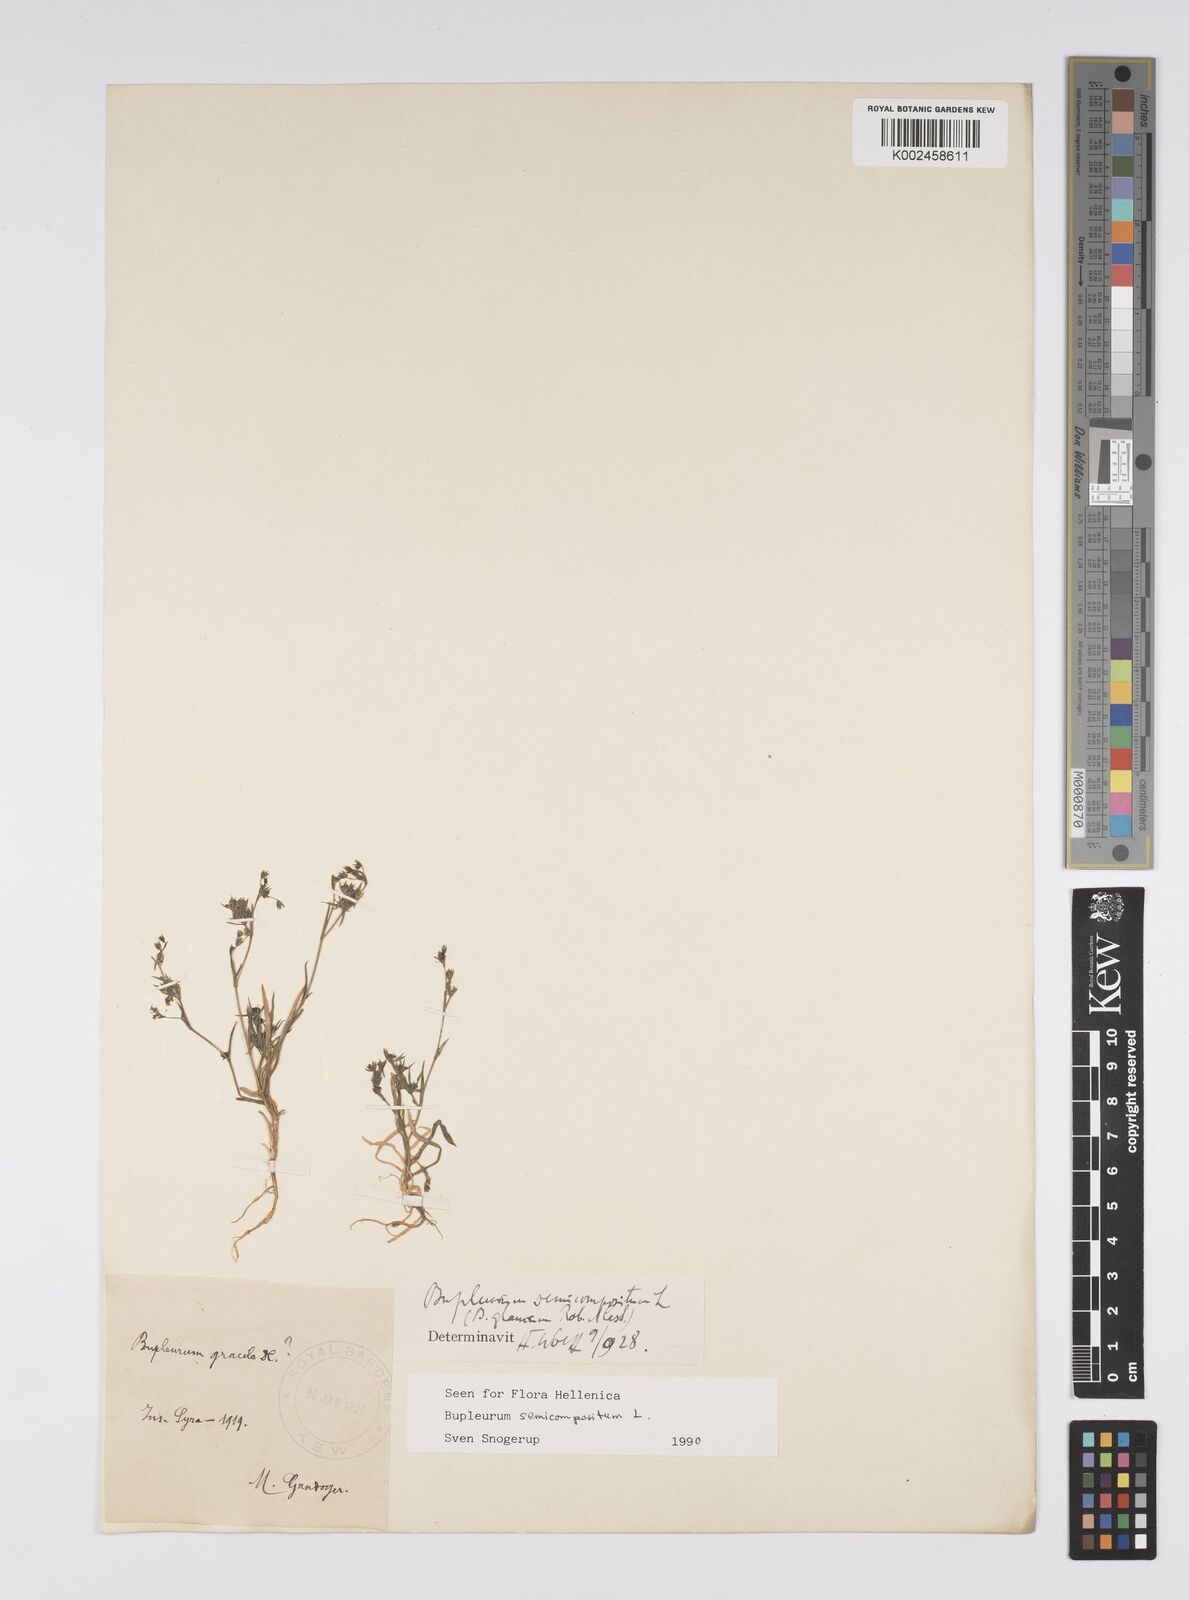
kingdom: Plantae
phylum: Tracheophyta
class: Magnoliopsida
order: Apiales
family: Apiaceae
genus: Bupleurum
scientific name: Bupleurum semicompositum
